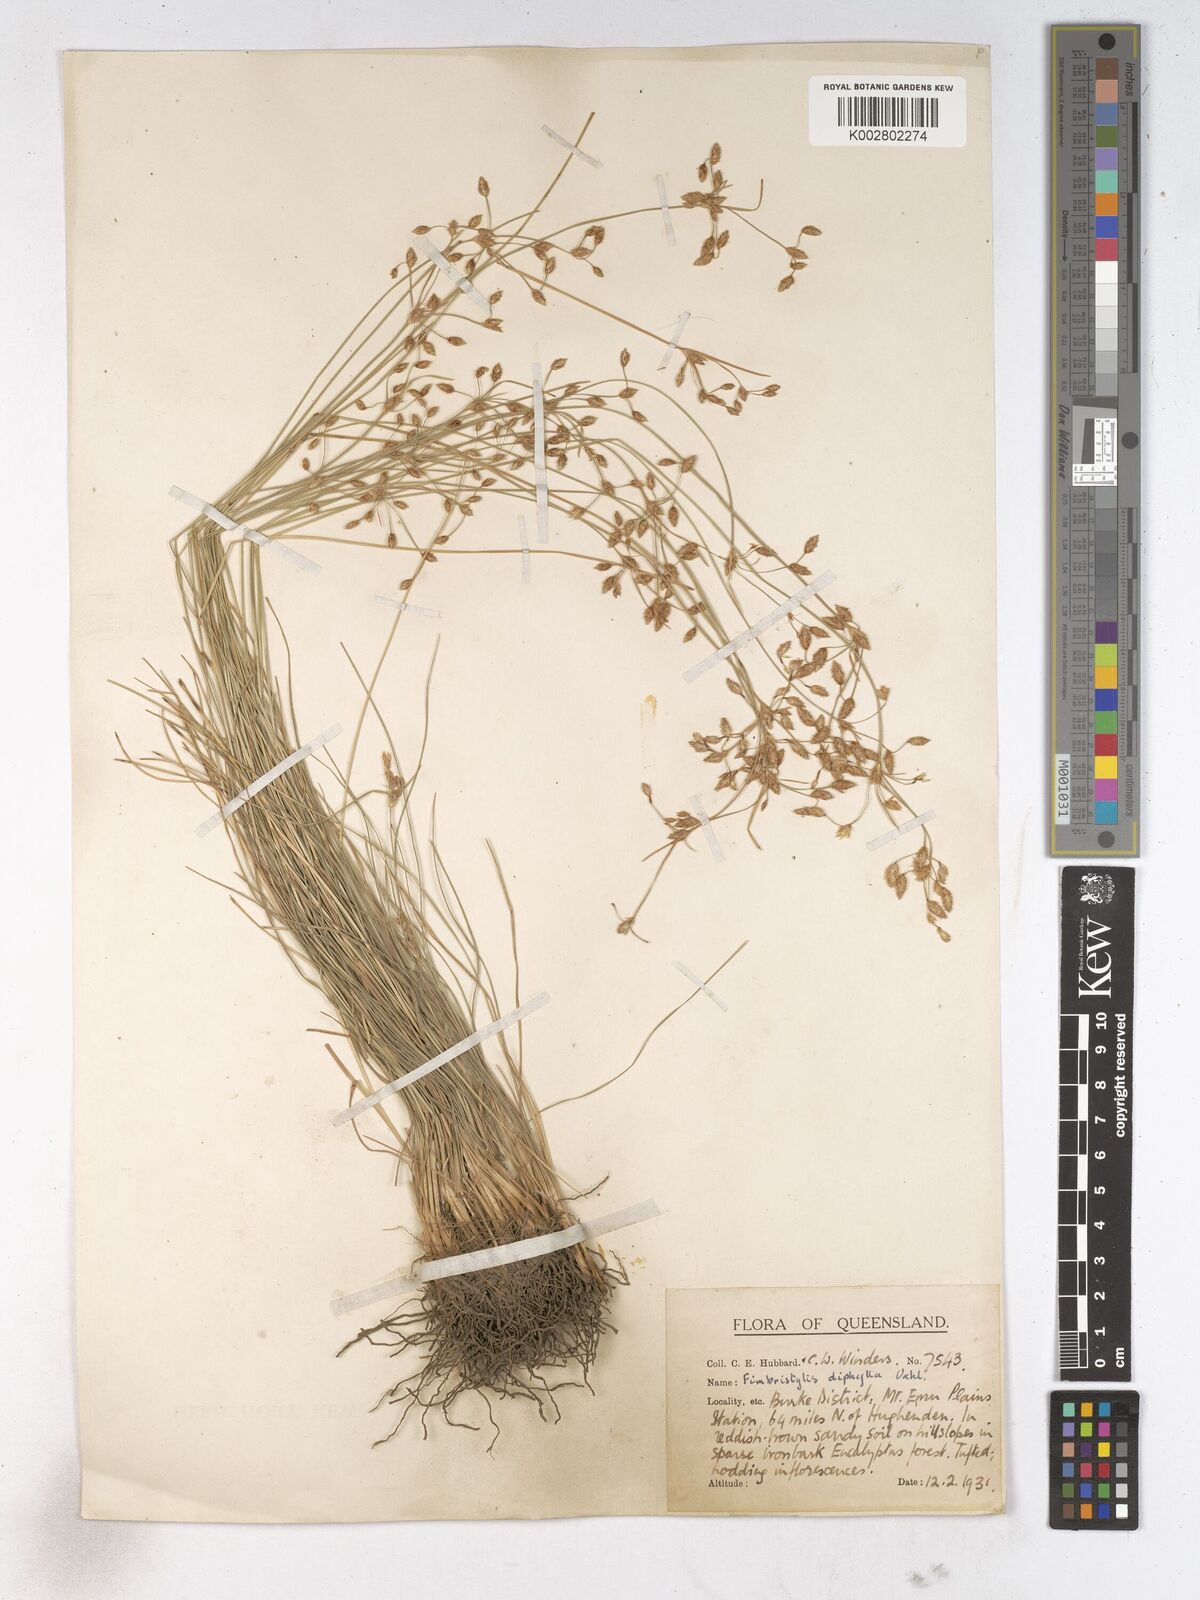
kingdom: Plantae
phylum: Tracheophyta
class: Liliopsida
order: Poales
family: Cyperaceae
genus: Fimbristylis
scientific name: Fimbristylis dichotoma
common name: Forked fimbry
